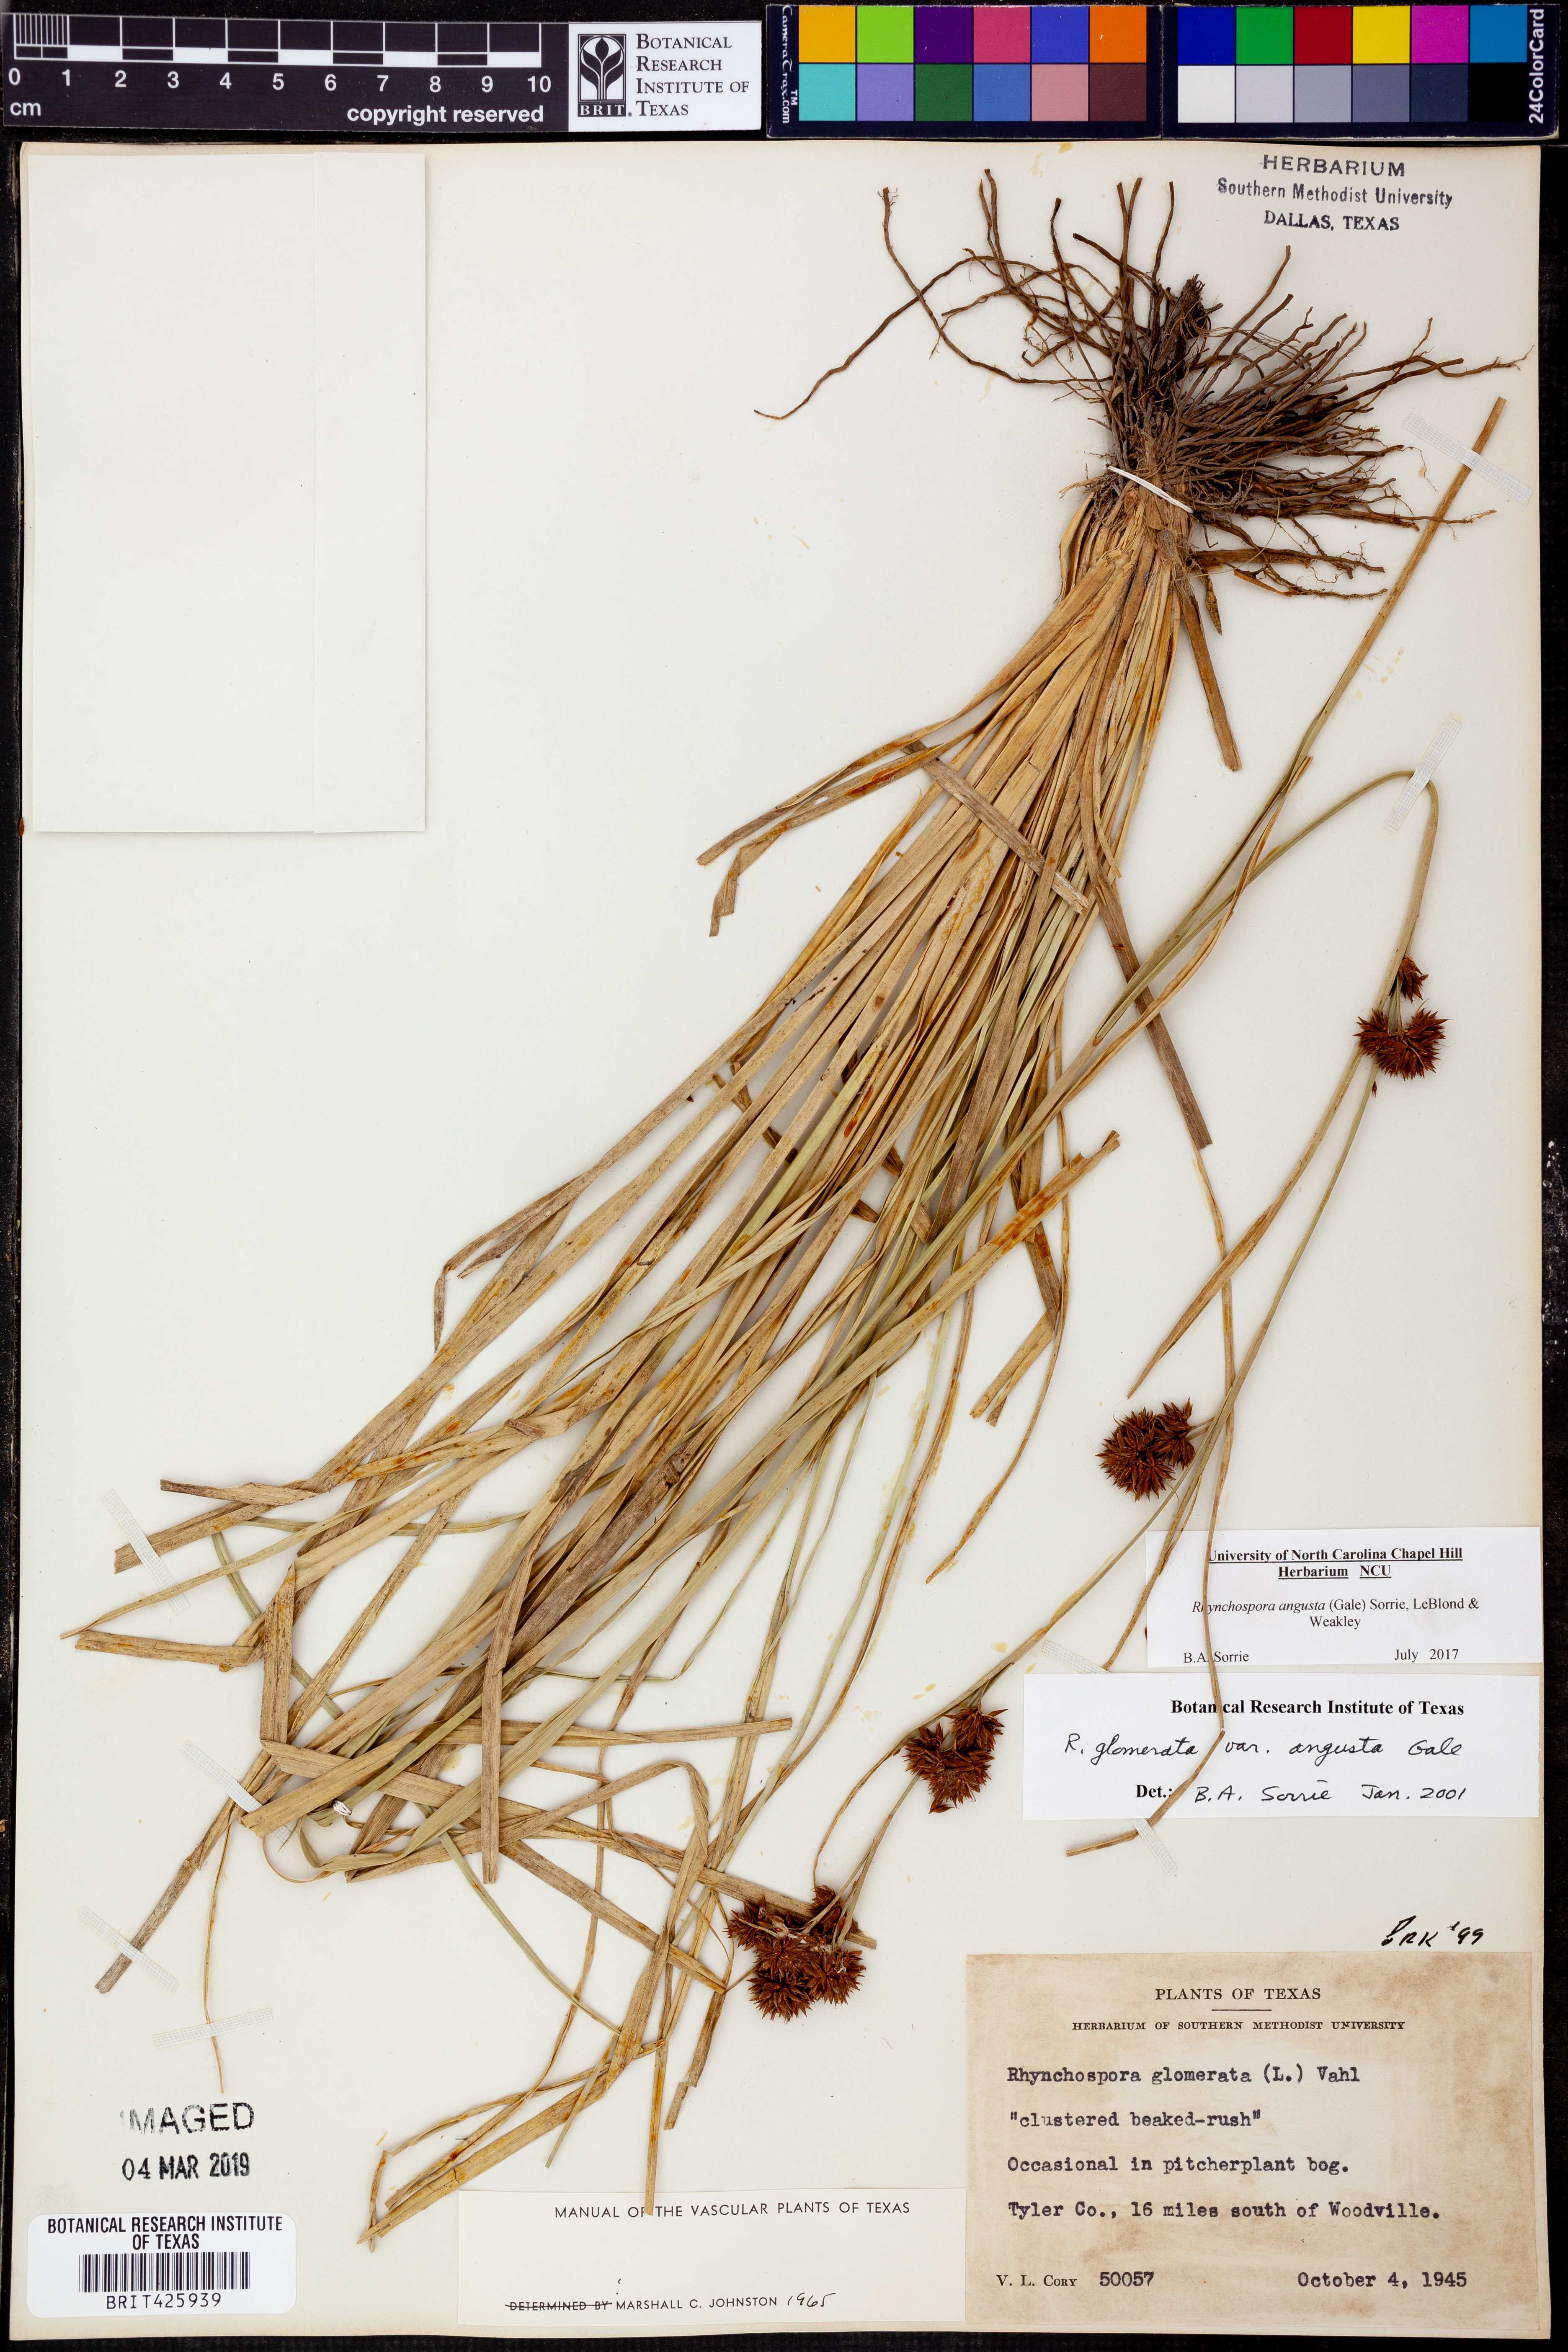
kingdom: Plantae
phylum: Tracheophyta
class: Liliopsida
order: Poales
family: Cyperaceae
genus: Rhynchospora
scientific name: Rhynchospora angusta
